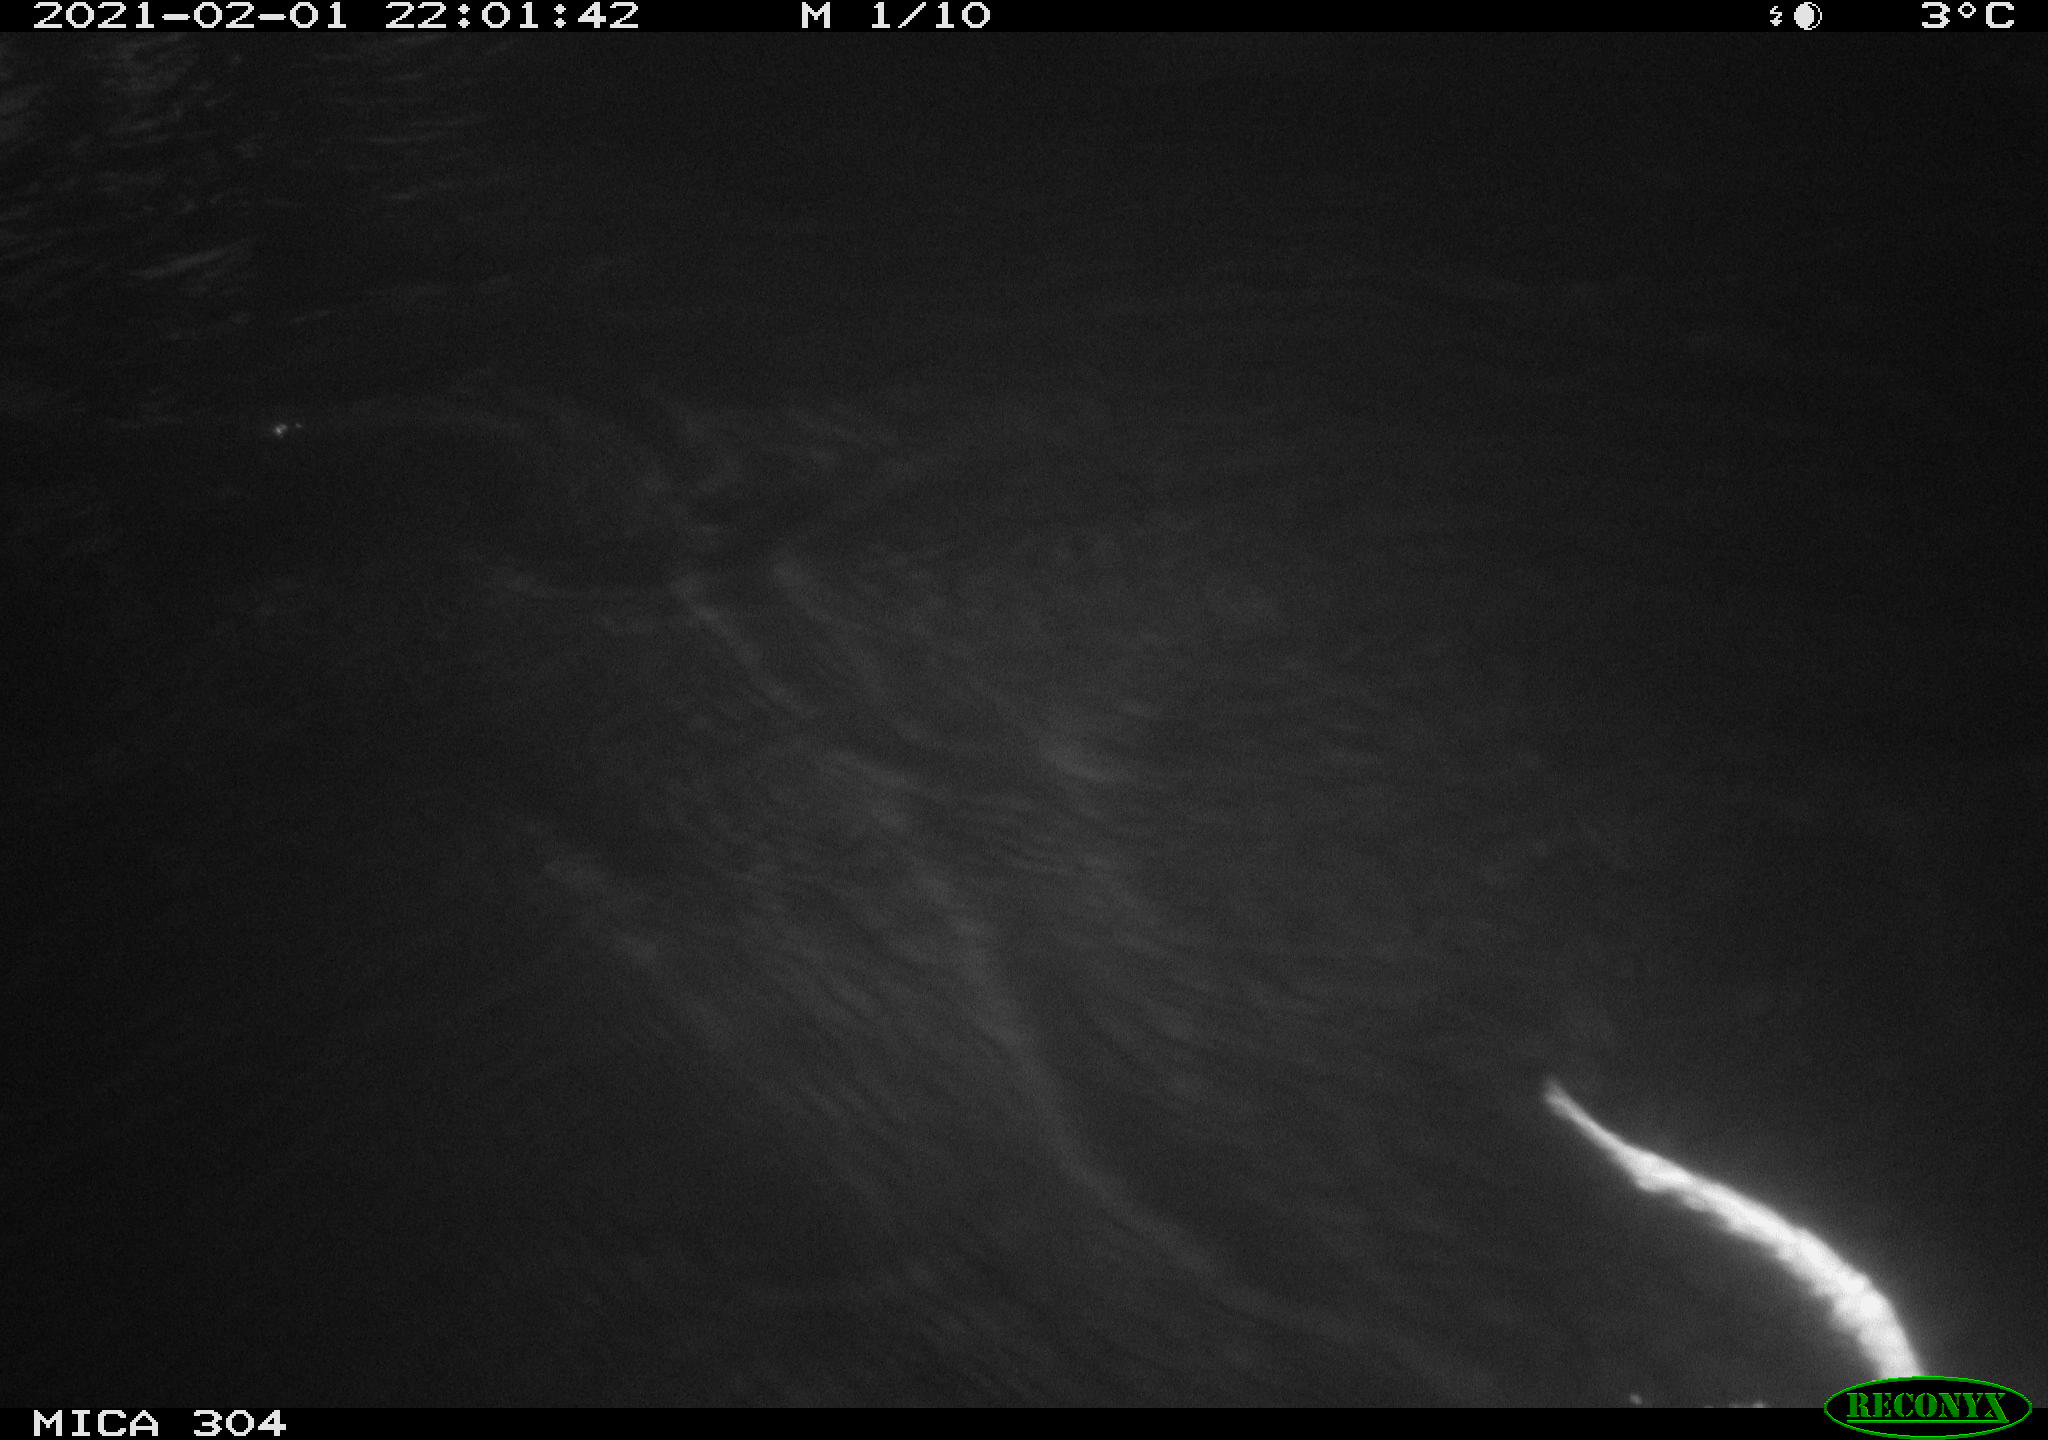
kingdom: Animalia
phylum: Chordata
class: Mammalia
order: Rodentia
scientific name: Rodentia
